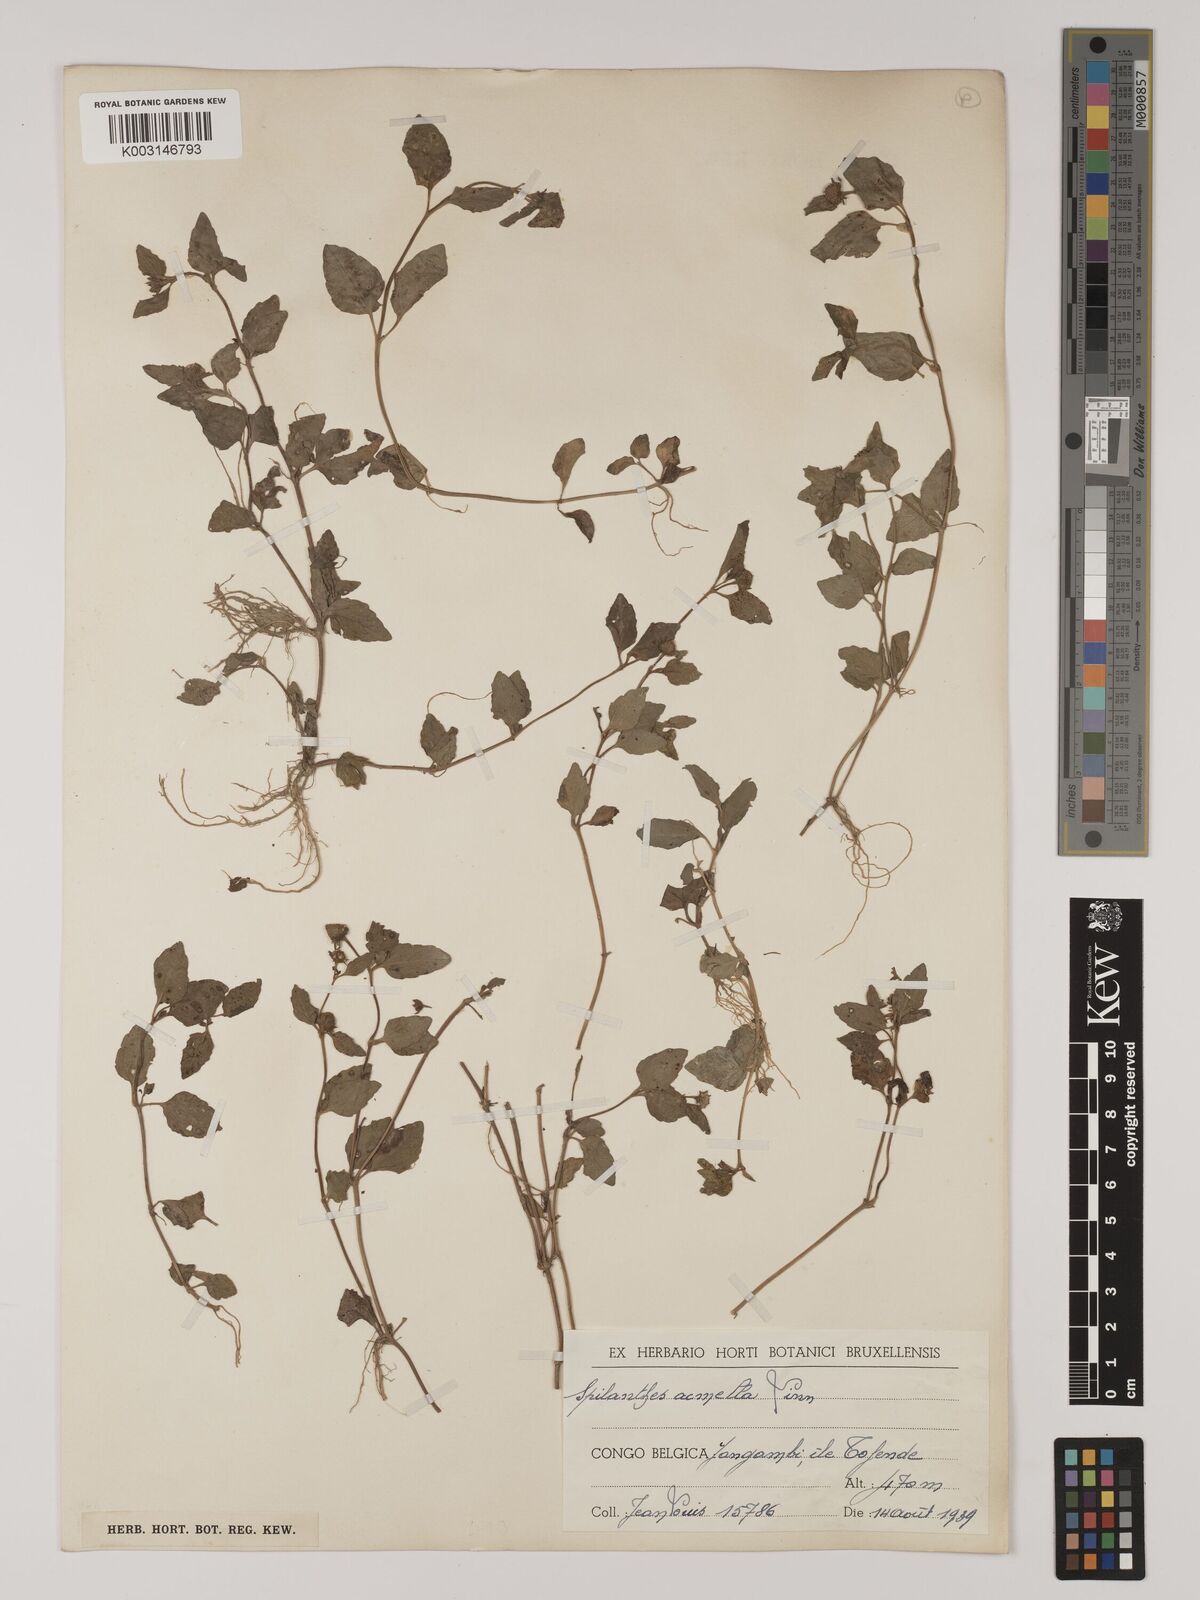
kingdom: Plantae
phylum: Tracheophyta
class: Magnoliopsida
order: Asterales
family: Asteraceae
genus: Acmella
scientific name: Acmella caulirhiza
